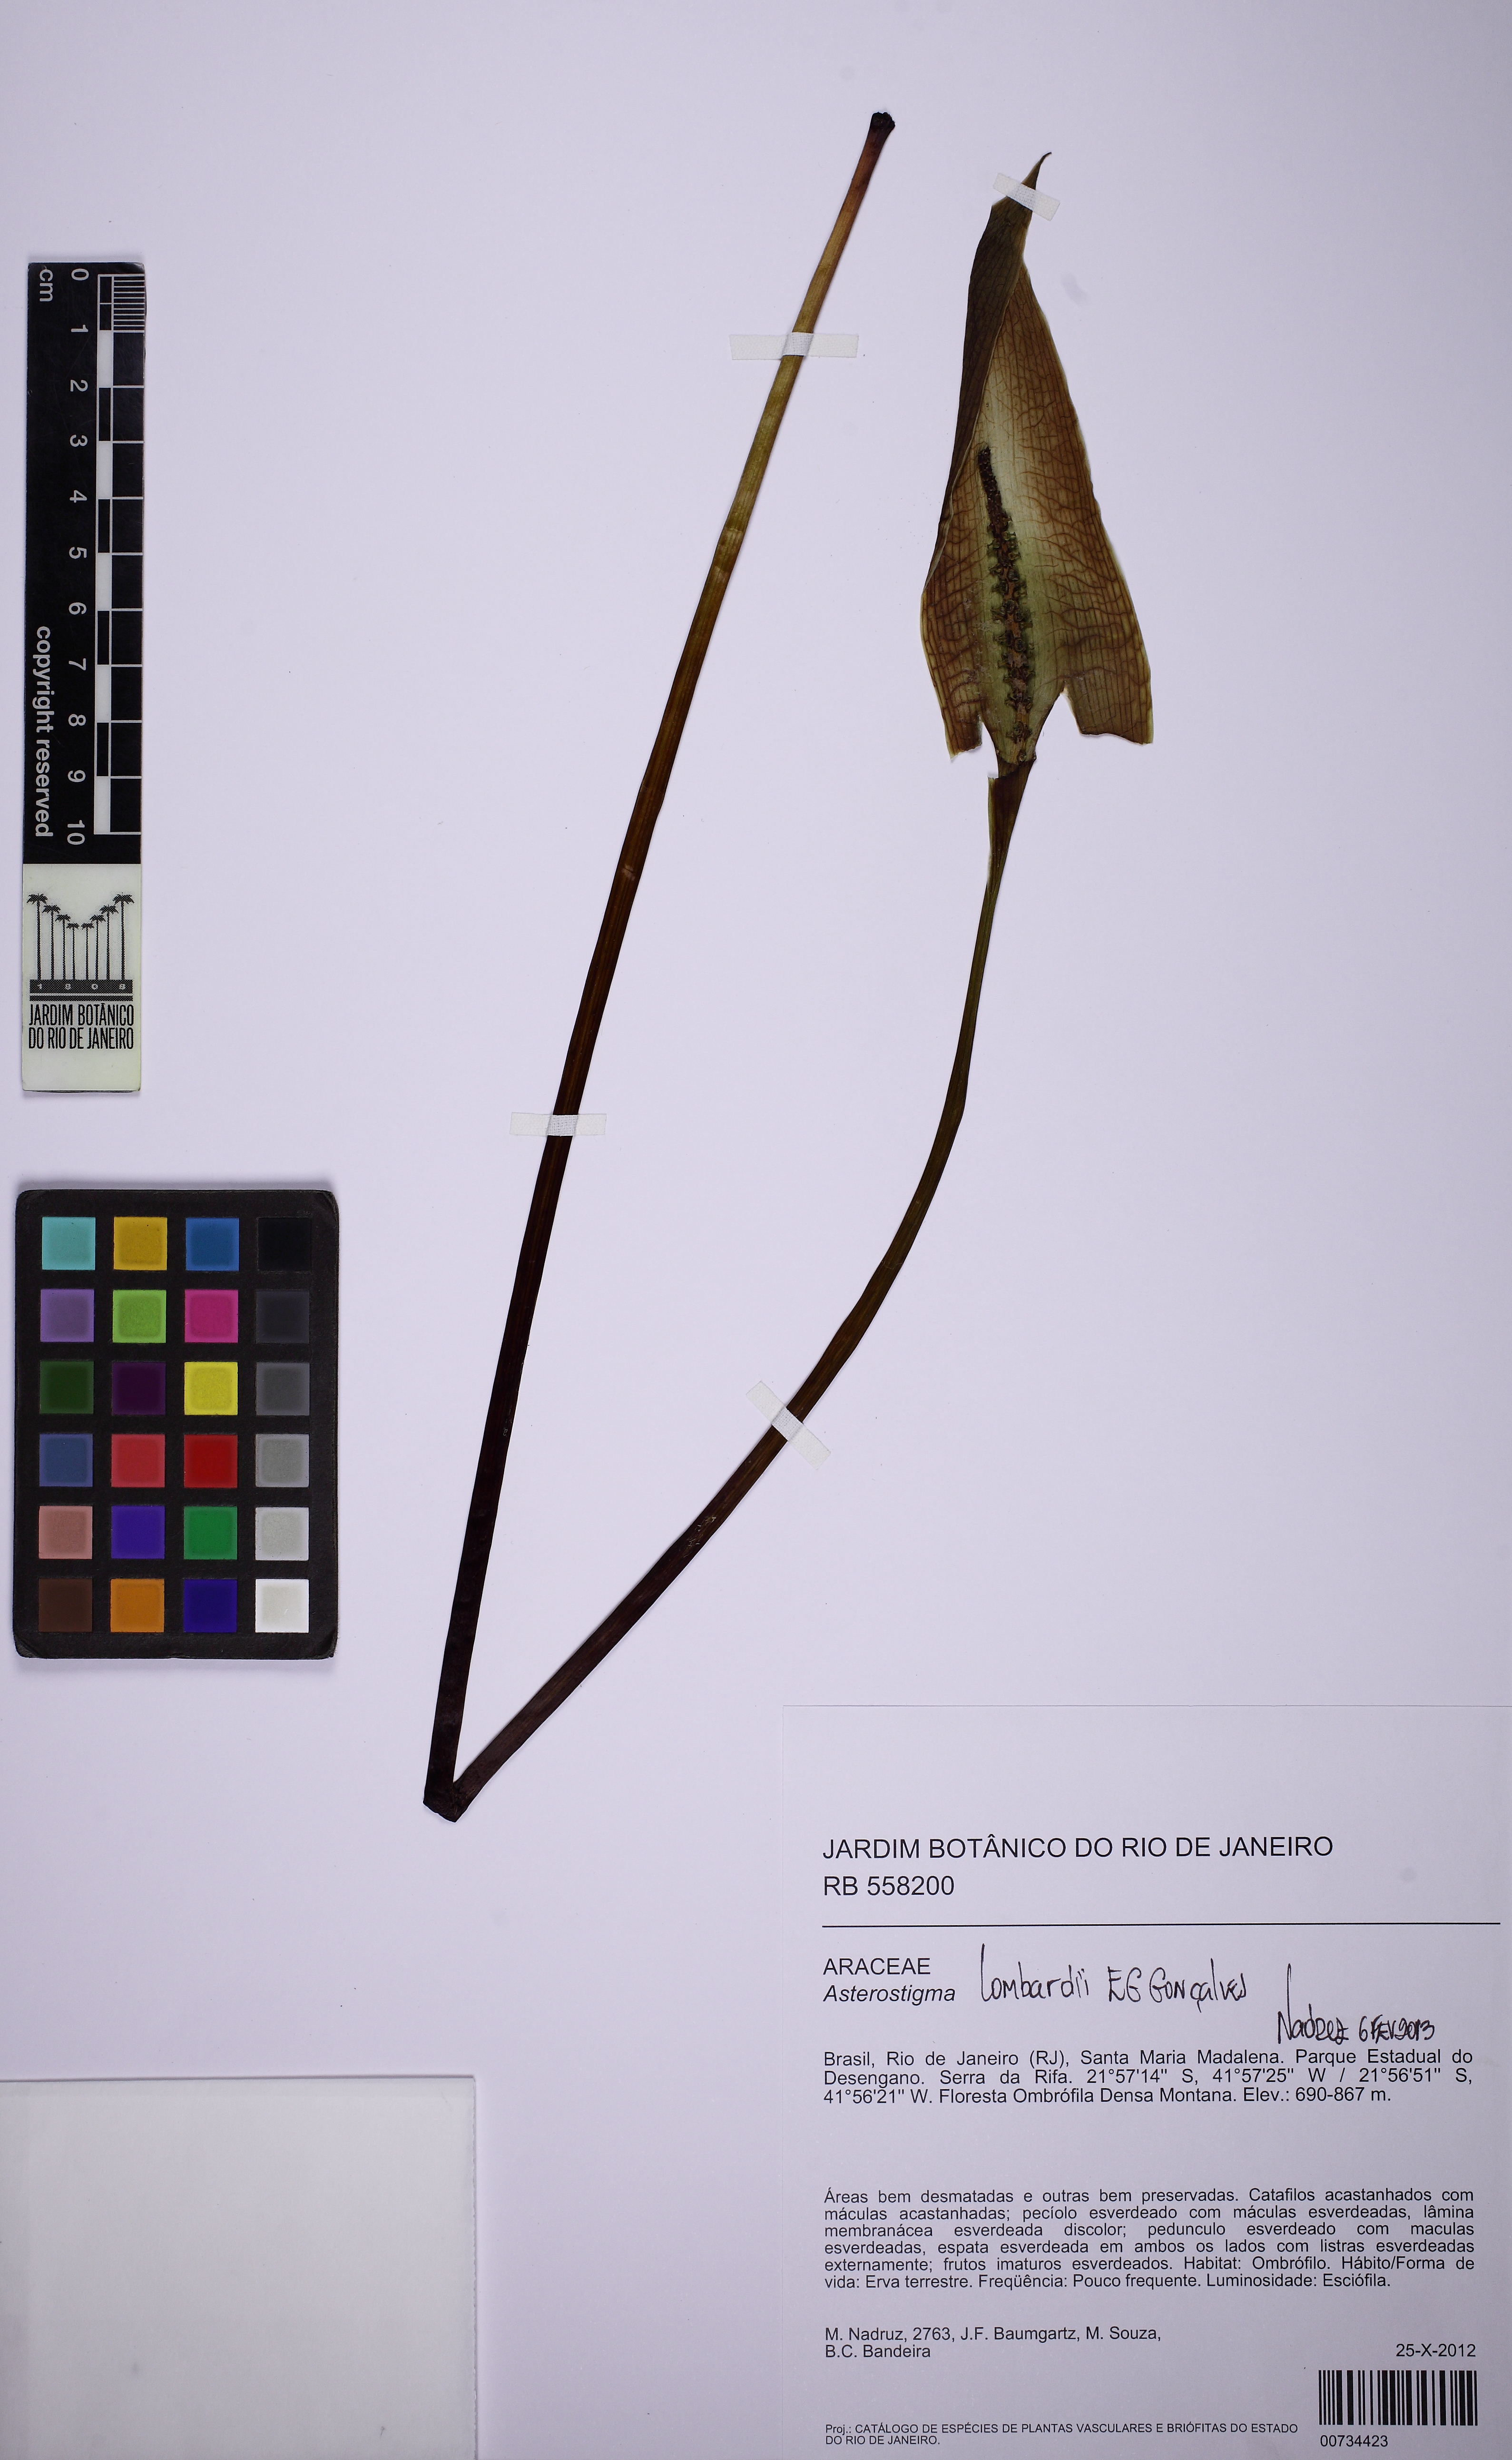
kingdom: Plantae
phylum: Tracheophyta
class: Liliopsida
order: Alismatales
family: Araceae
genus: Asterostigma
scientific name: Asterostigma lombardii
